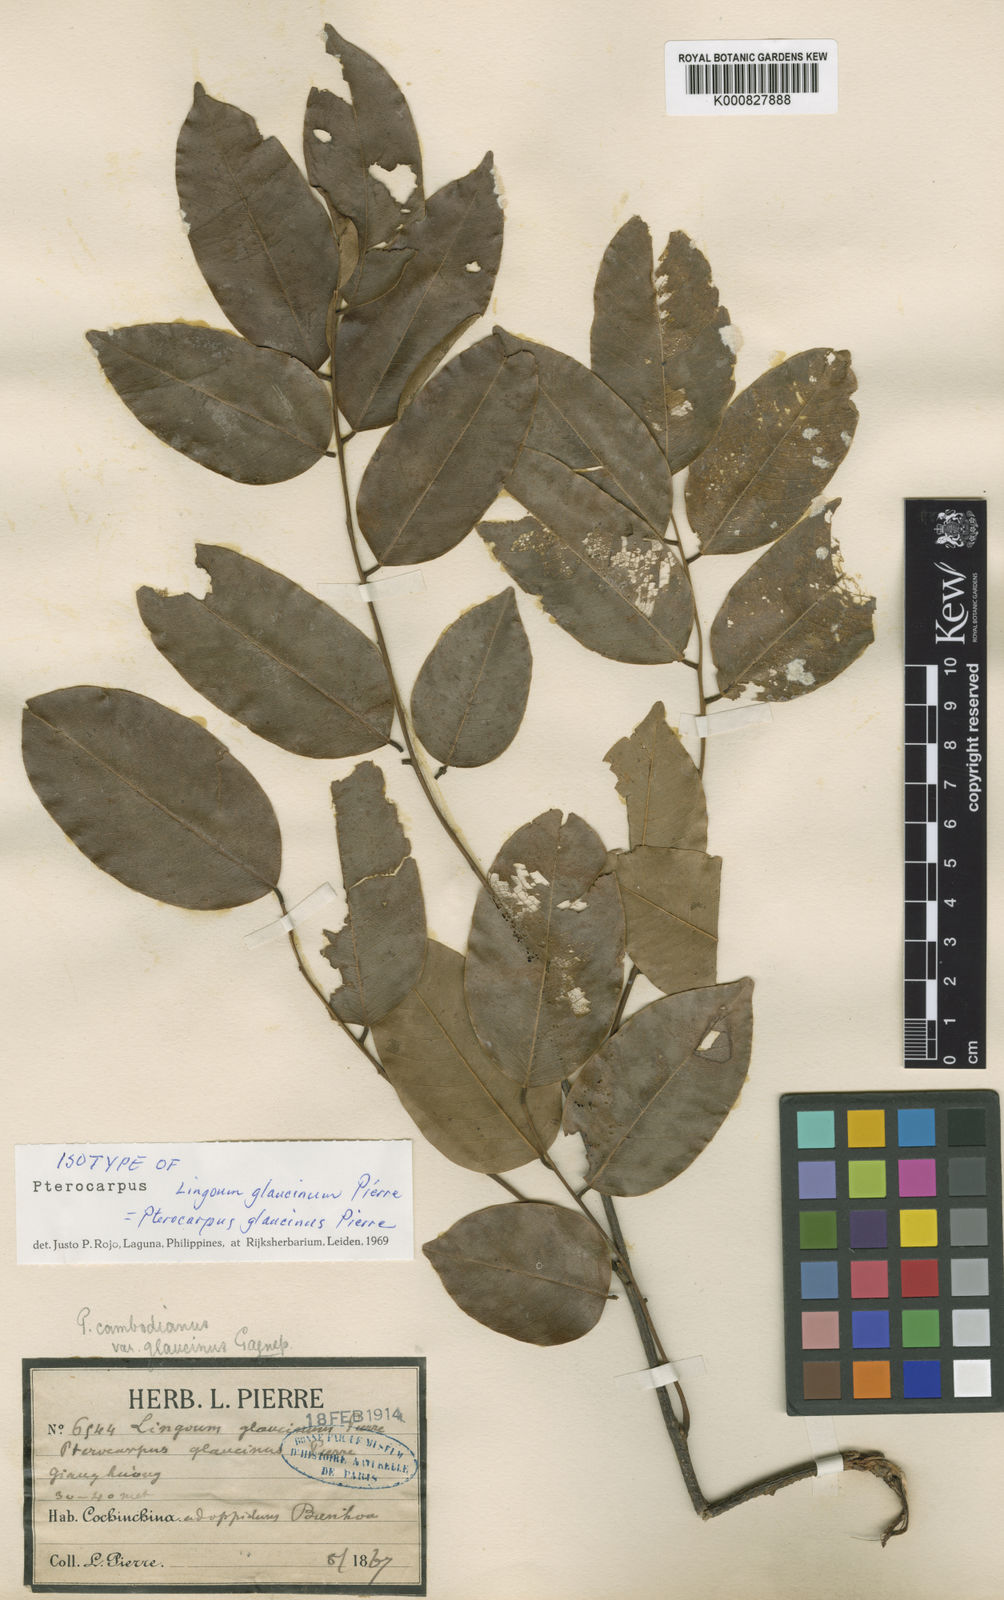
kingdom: Plantae
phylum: Tracheophyta
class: Magnoliopsida
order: Fabales
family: Fabaceae
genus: Pterocarpus
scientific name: Pterocarpus
